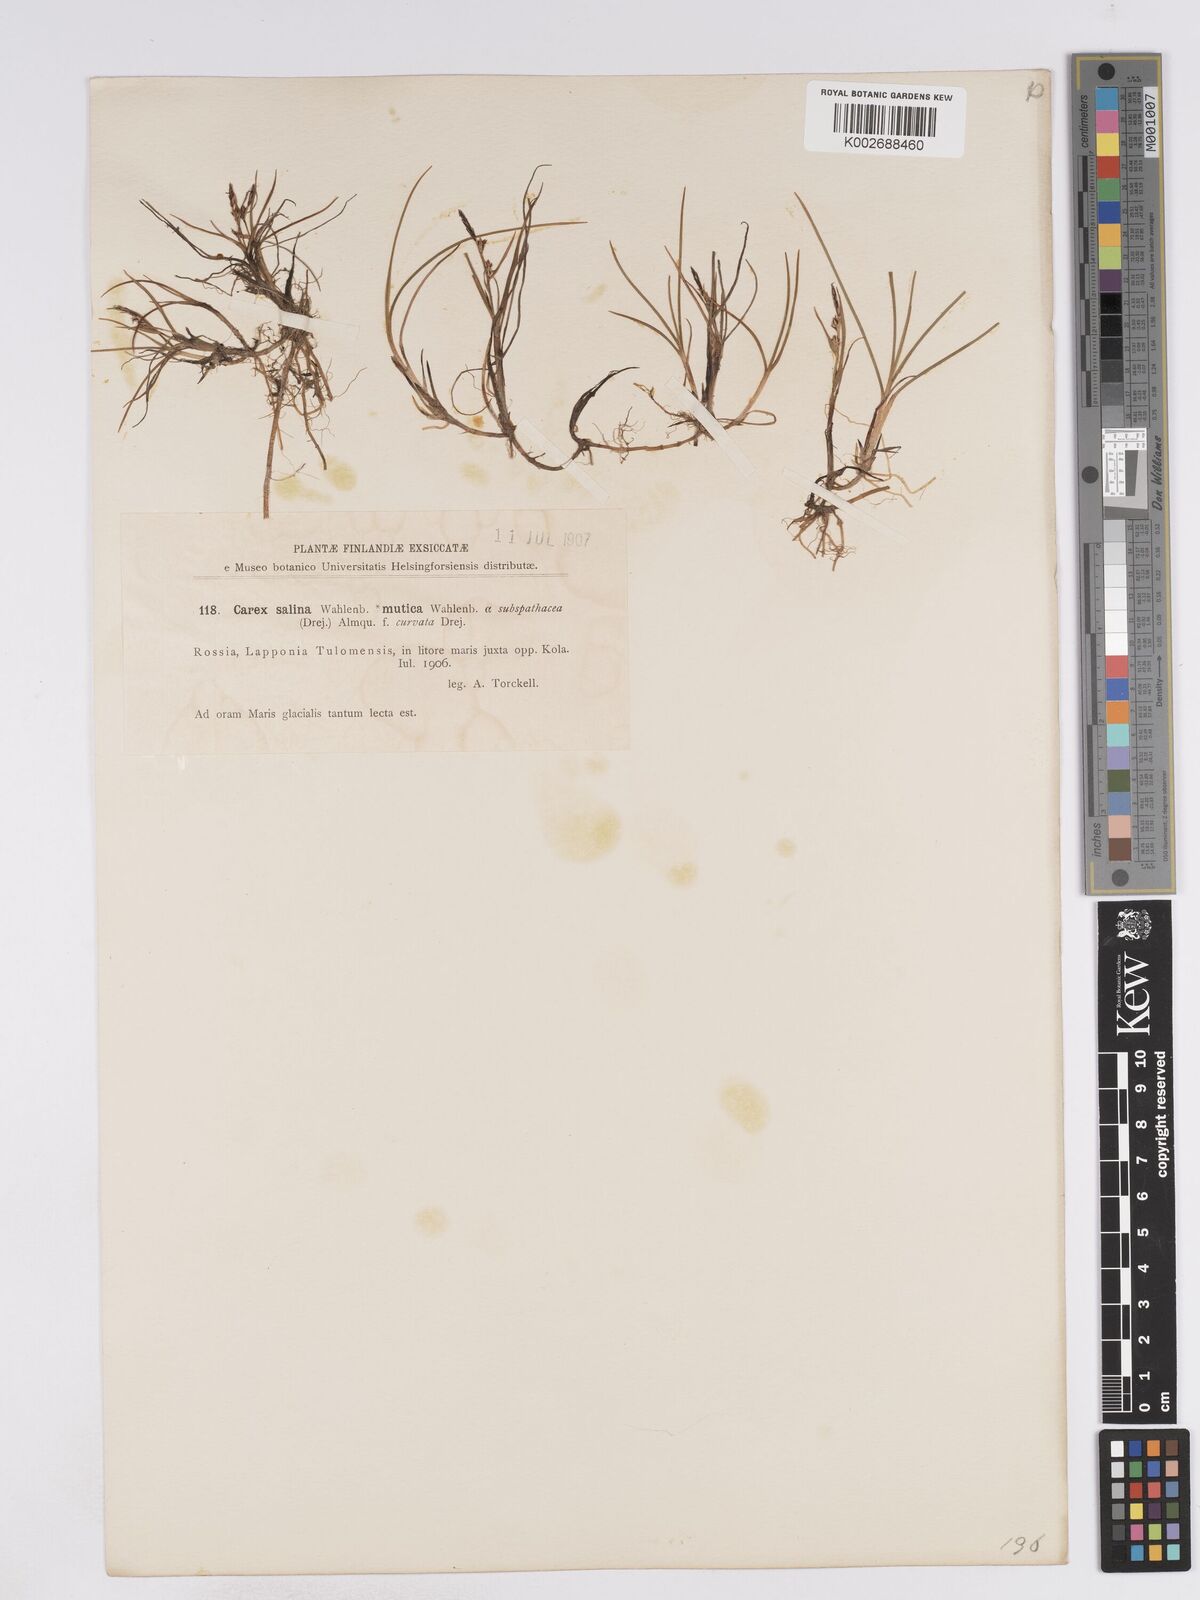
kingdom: Plantae
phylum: Tracheophyta
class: Liliopsida
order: Poales
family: Cyperaceae
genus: Carex
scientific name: Carex subspathacea
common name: Hoppner's sedge
